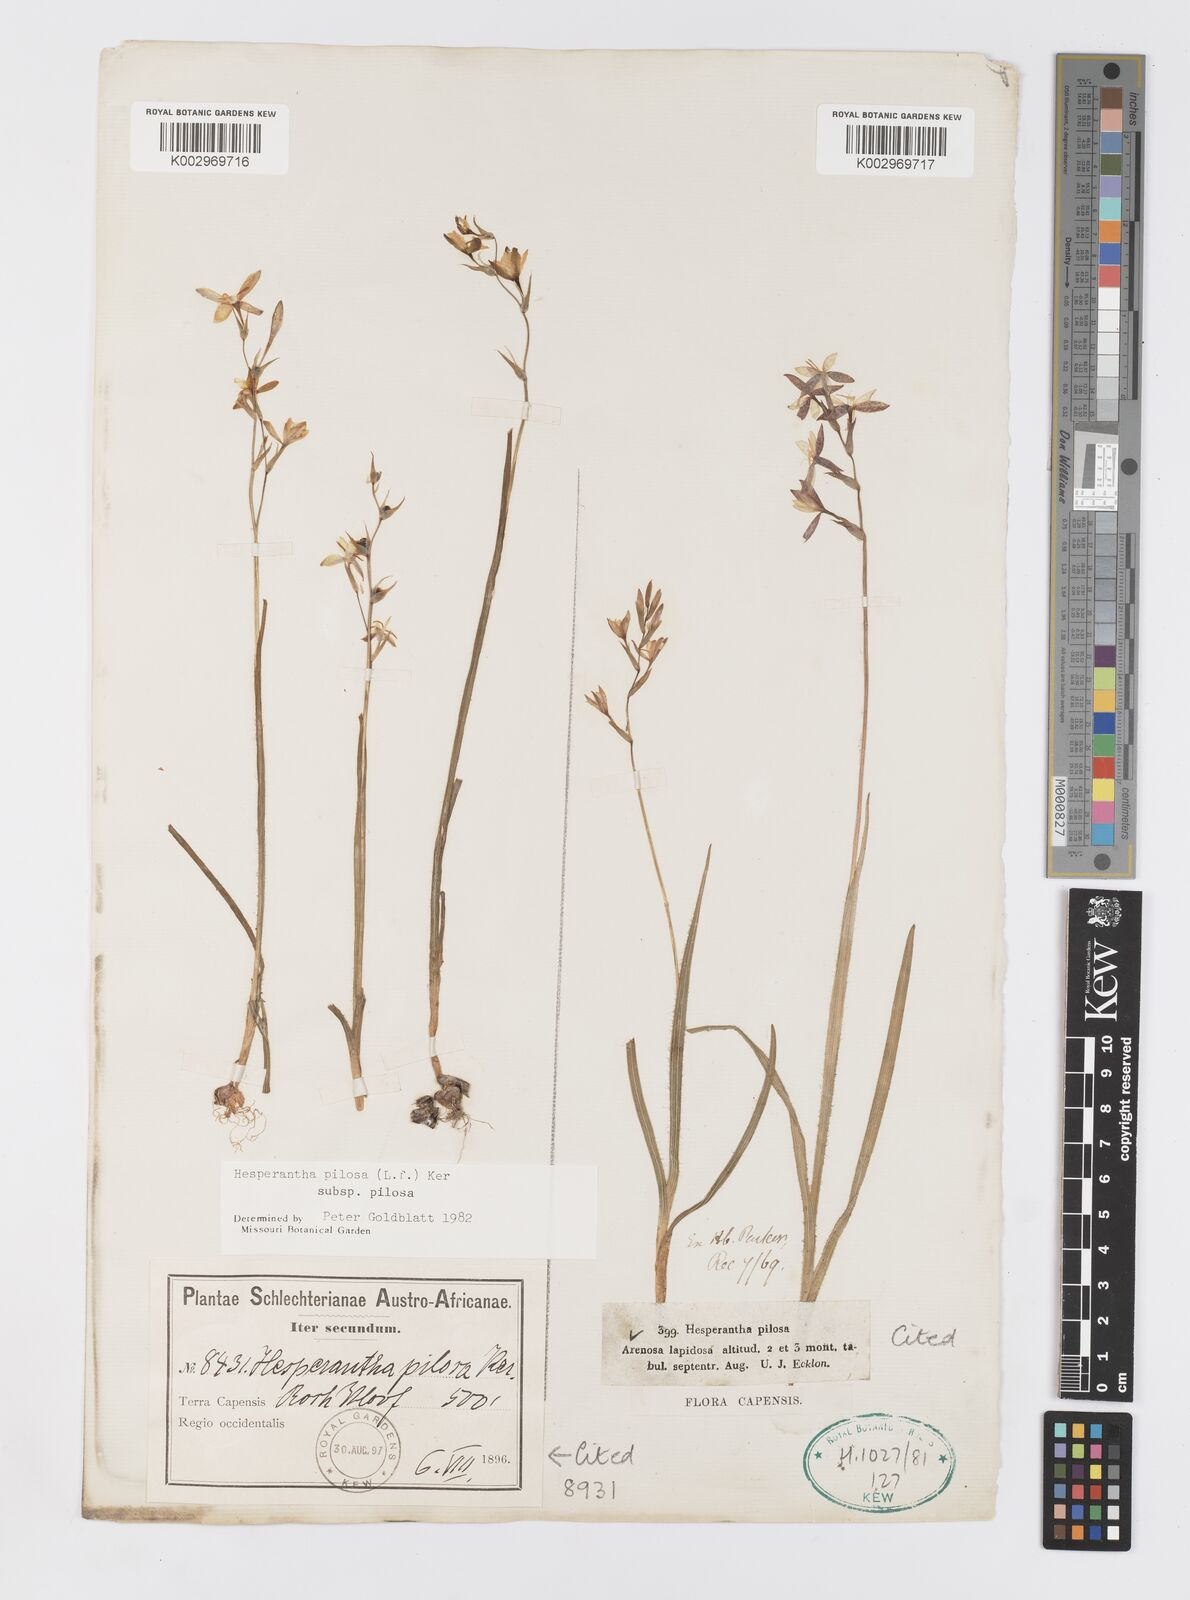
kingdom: Plantae
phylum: Tracheophyta
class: Liliopsida
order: Asparagales
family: Iridaceae
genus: Hesperantha
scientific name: Hesperantha pilosa
